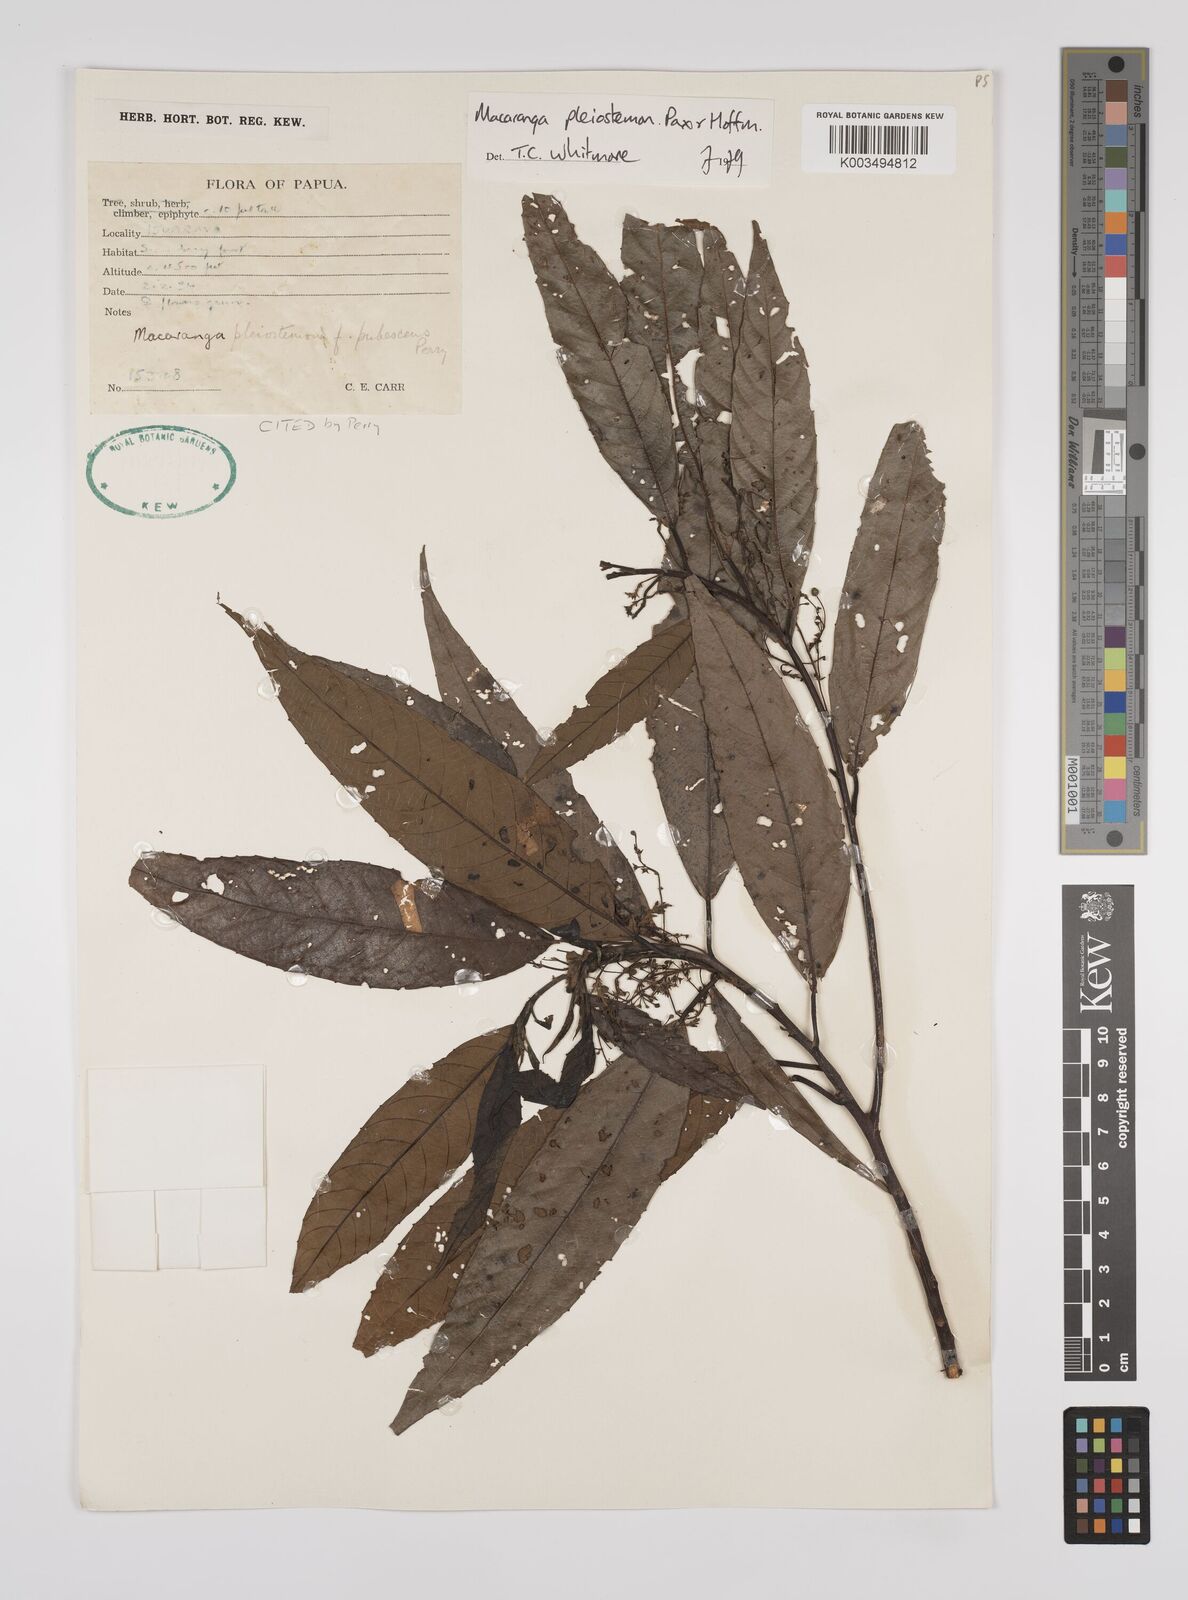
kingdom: Plantae
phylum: Tracheophyta
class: Magnoliopsida
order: Malpighiales
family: Euphorbiaceae
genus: Macaranga
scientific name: Macaranga pleiostemon
